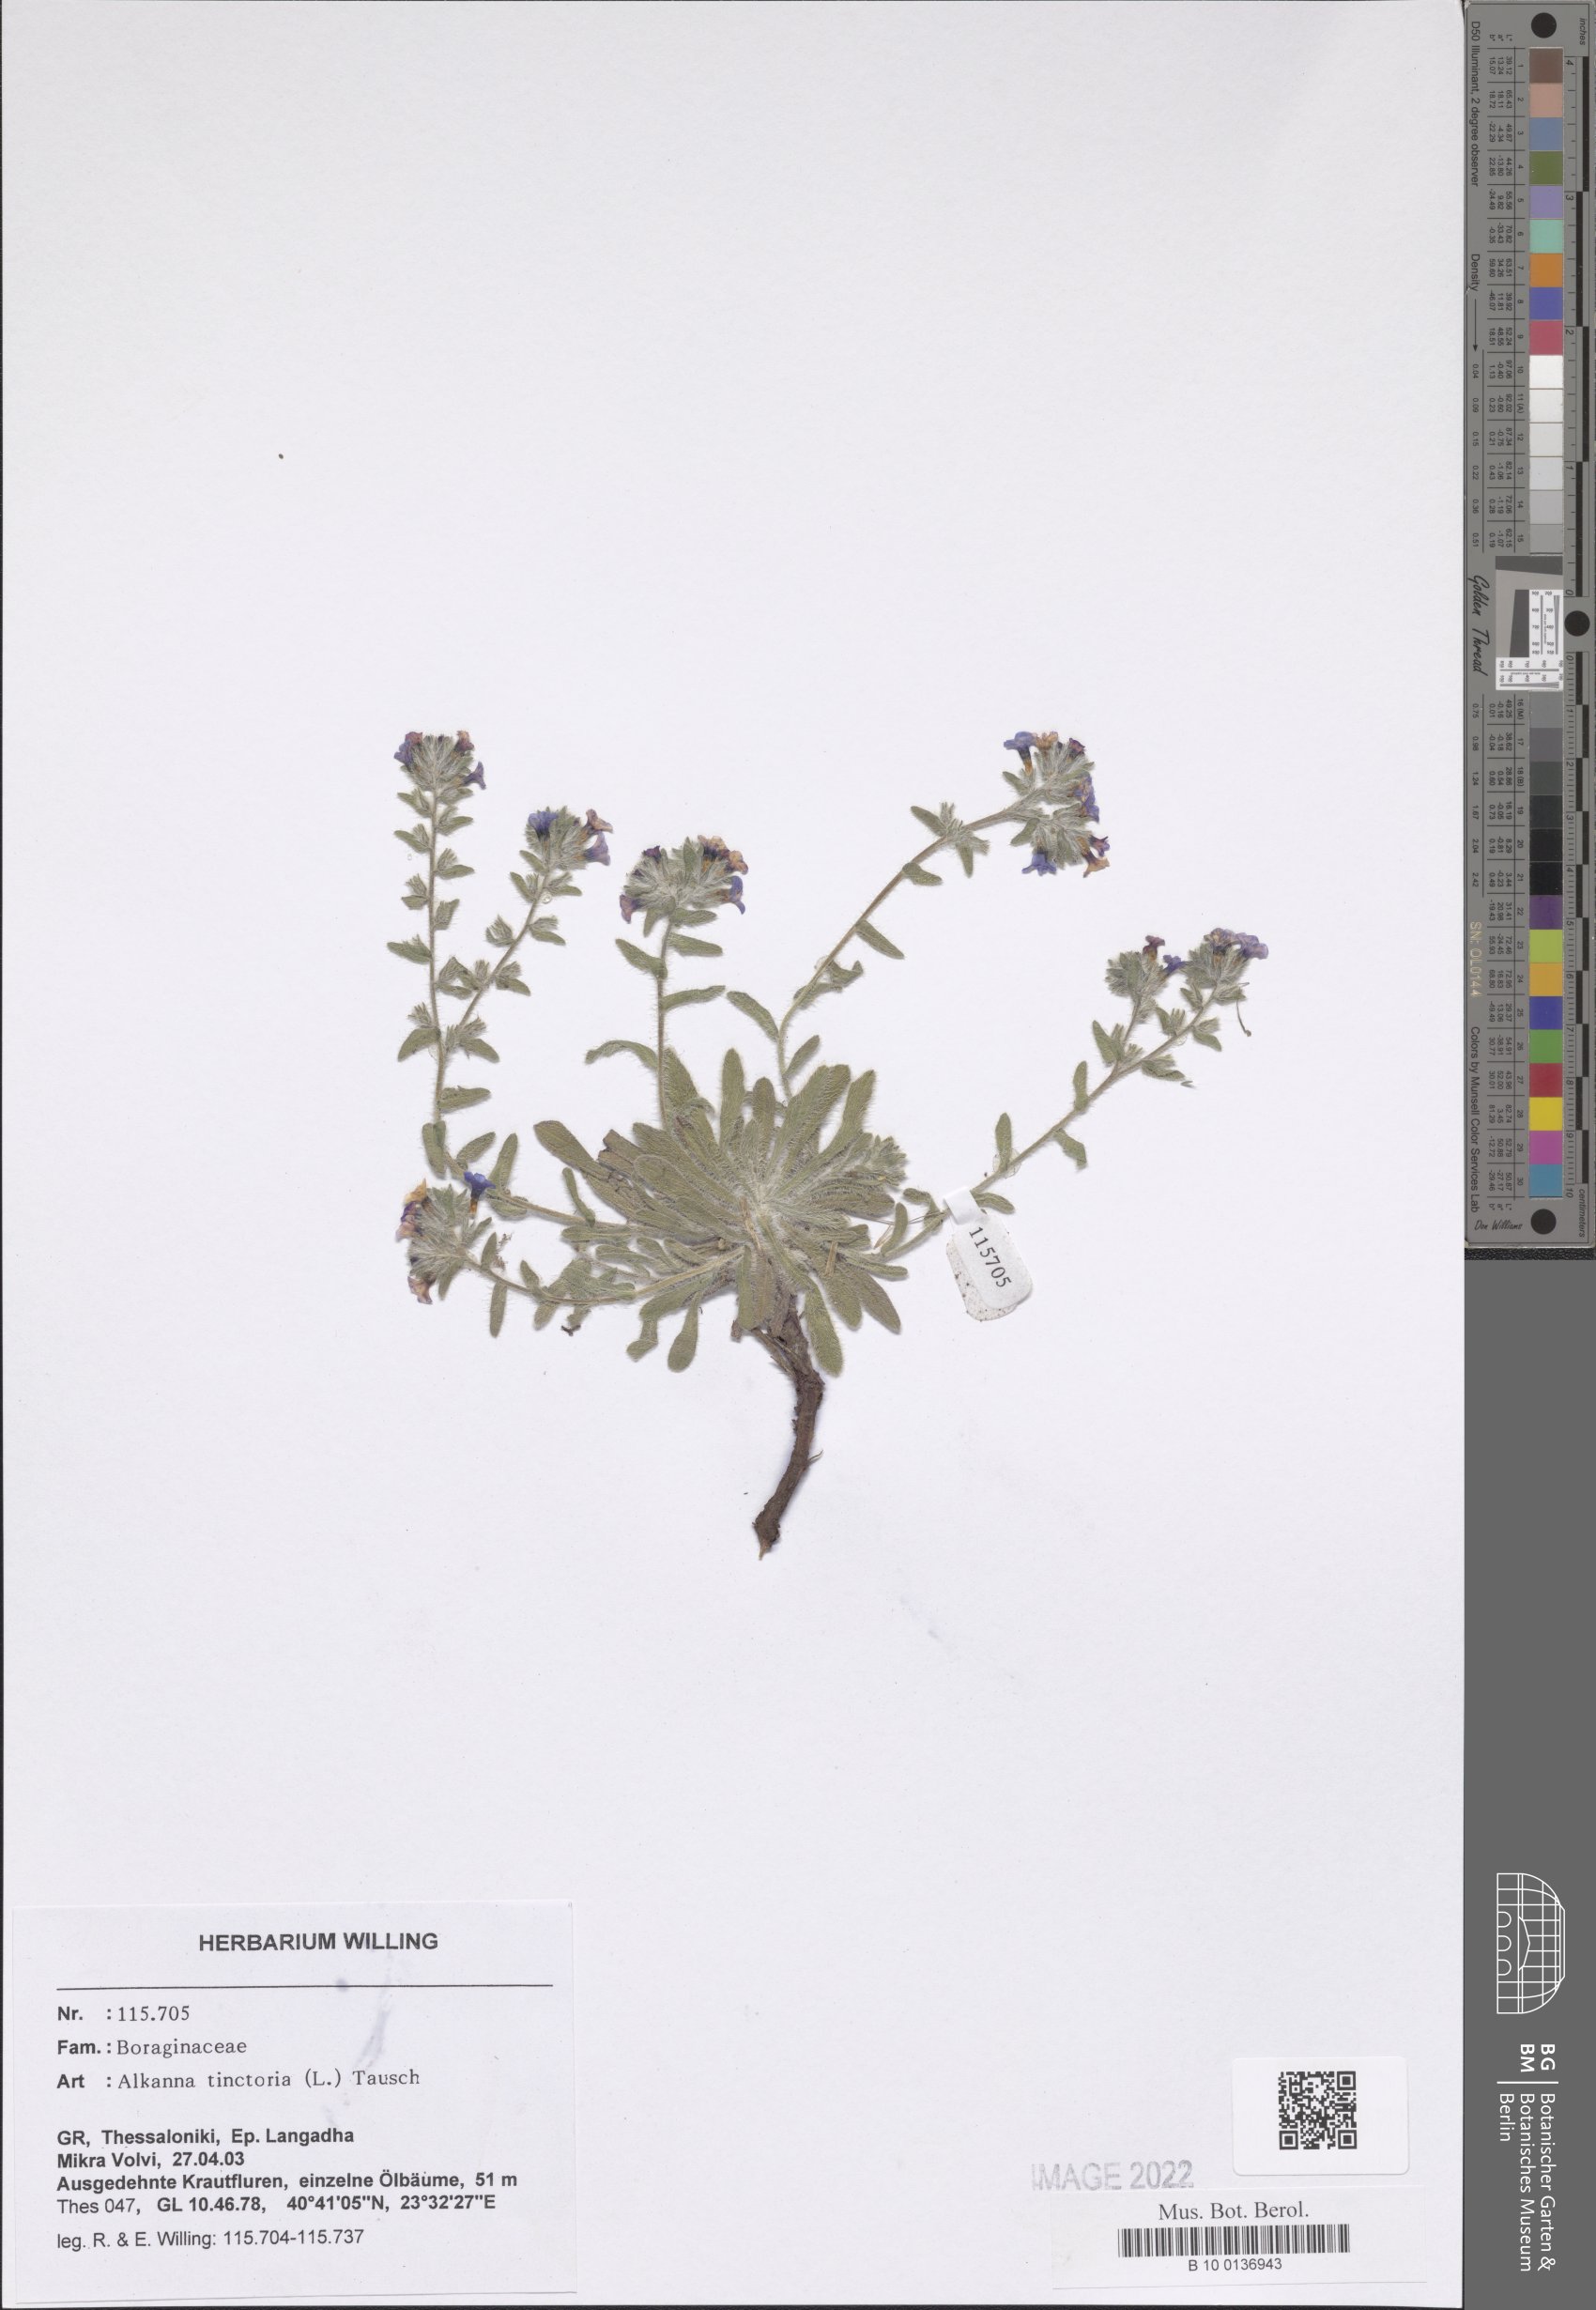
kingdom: Plantae
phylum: Tracheophyta
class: Magnoliopsida
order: Boraginales
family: Boraginaceae
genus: Alkanna
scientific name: Alkanna tinctoria
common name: Dyer's-alkanet
